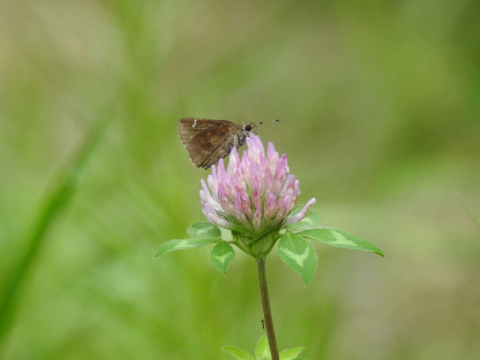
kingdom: Animalia
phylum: Arthropoda
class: Insecta
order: Lepidoptera
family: Hesperiidae
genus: Lerema
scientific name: Lerema accius
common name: Clouded Skipper
